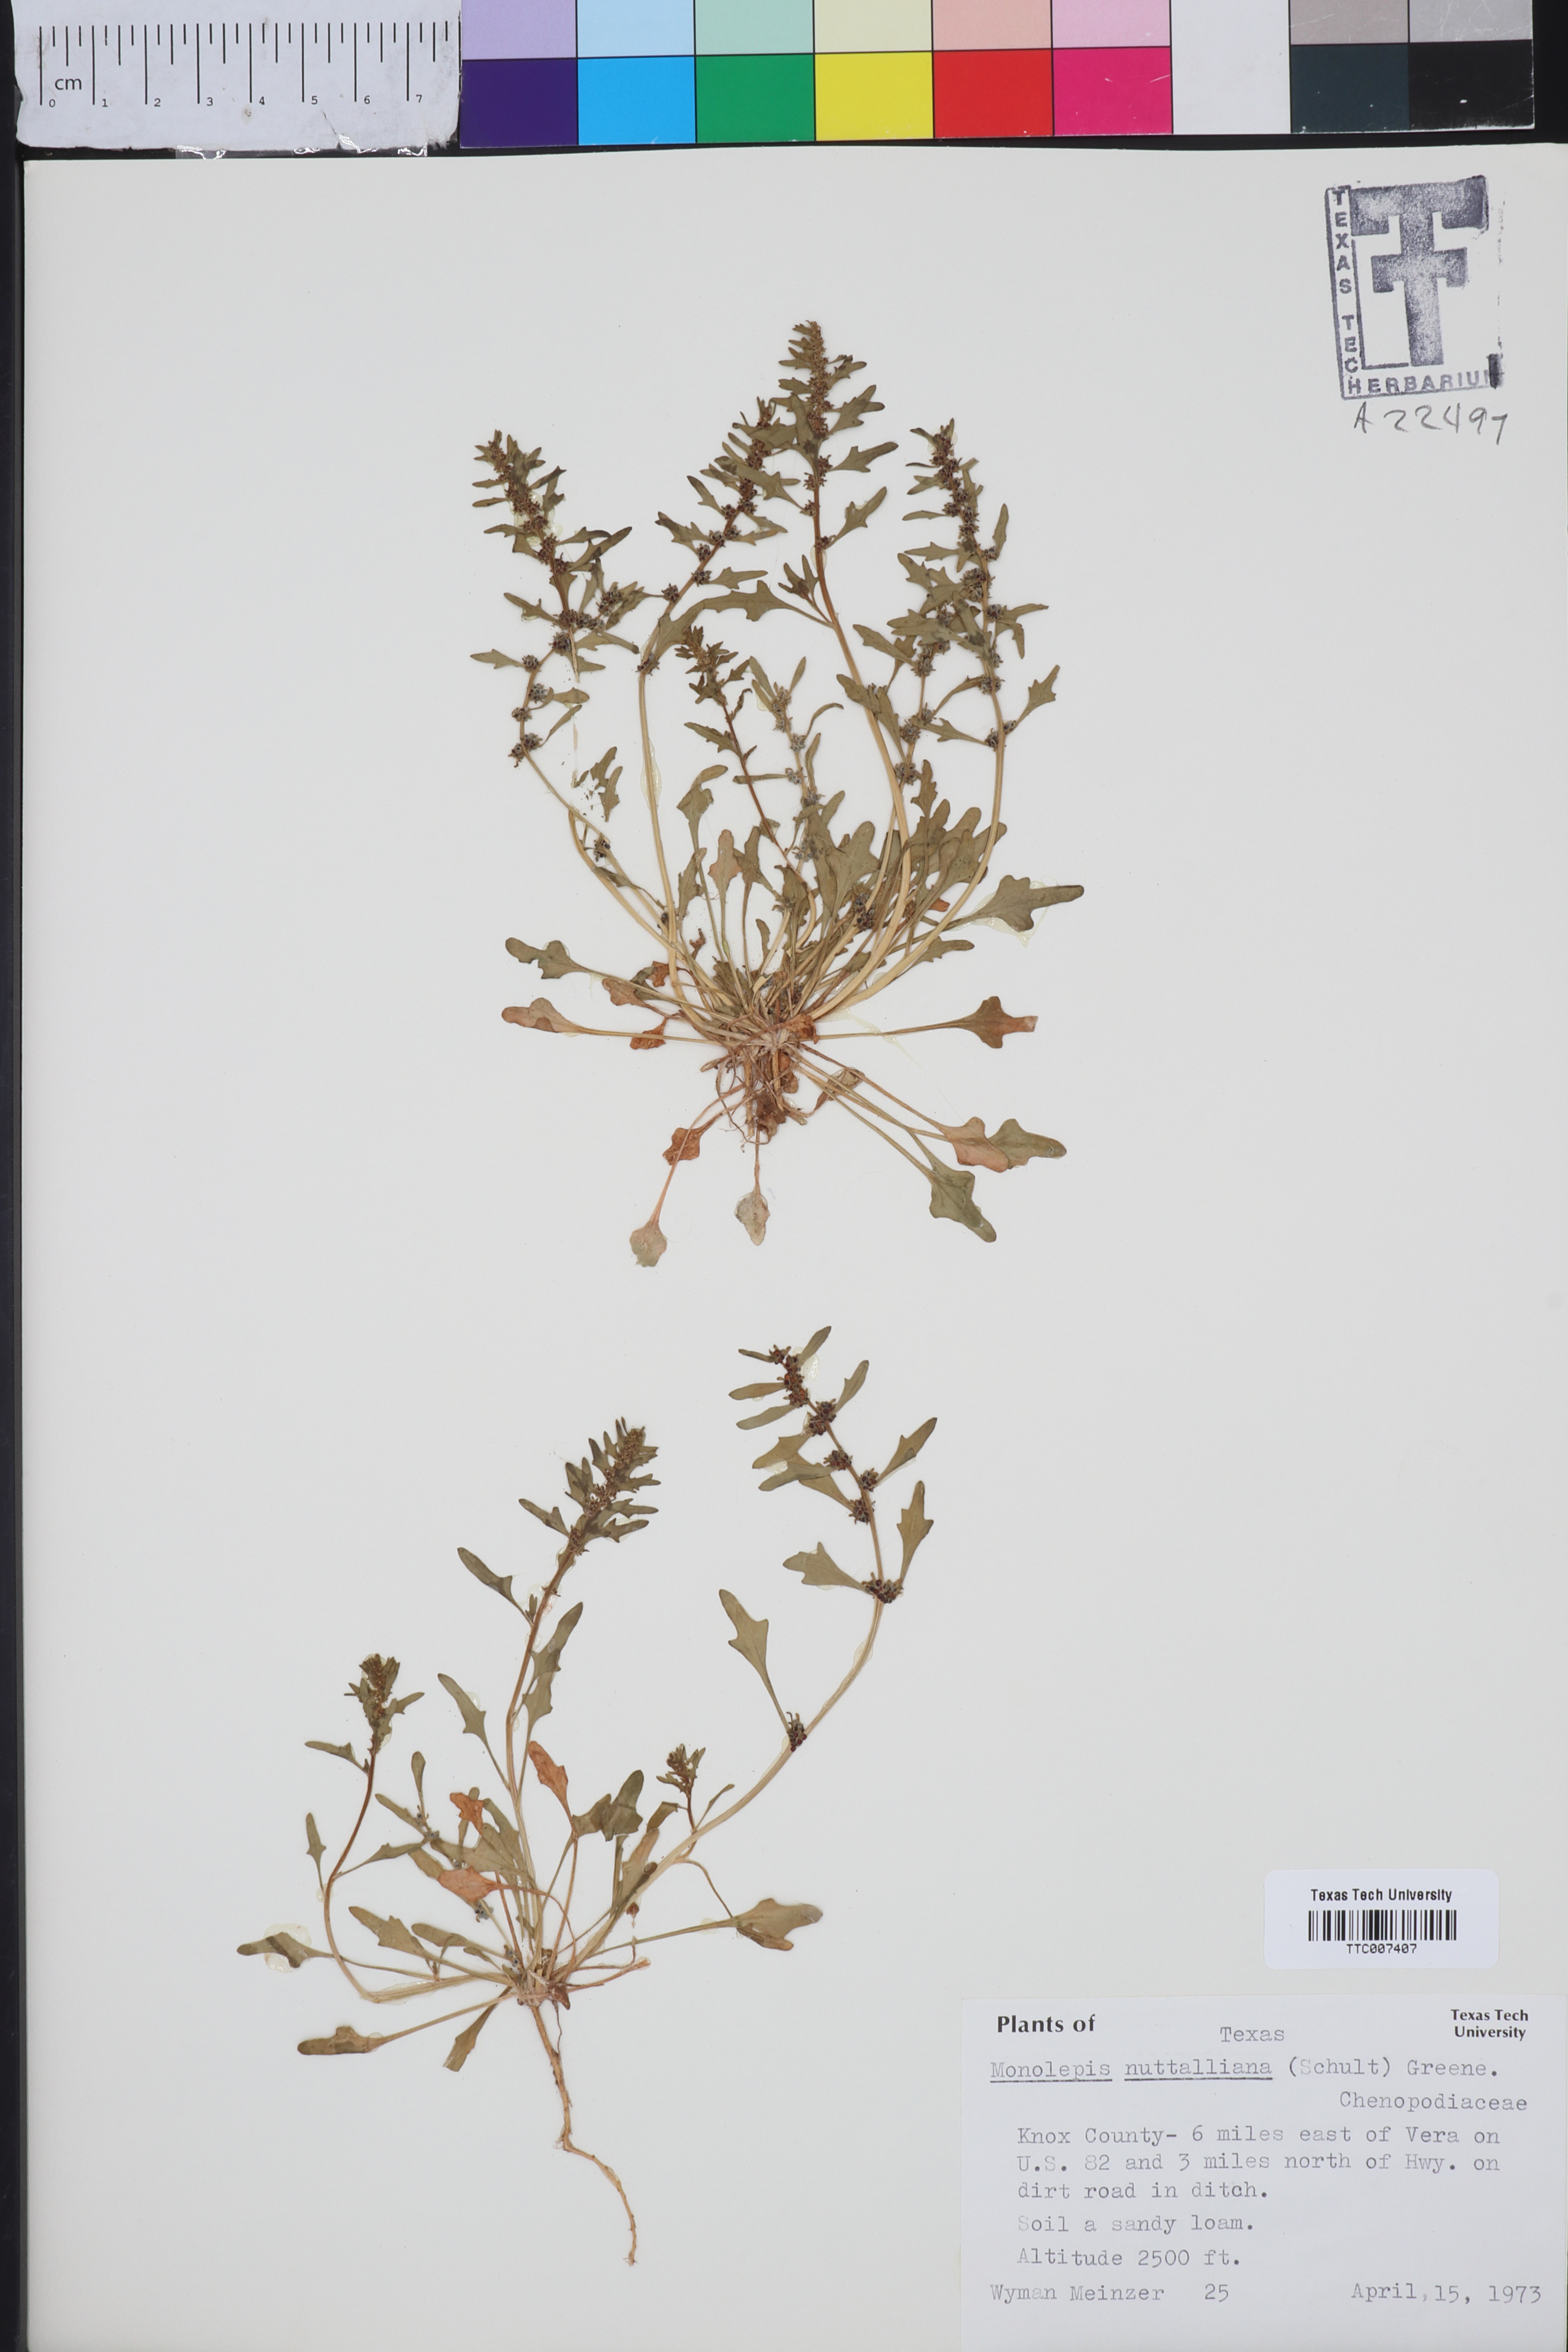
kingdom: Plantae
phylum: Tracheophyta
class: Magnoliopsida
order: Caryophyllales
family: Amaranthaceae
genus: Blitum
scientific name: Blitum nuttallianum
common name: Poverty-weed
